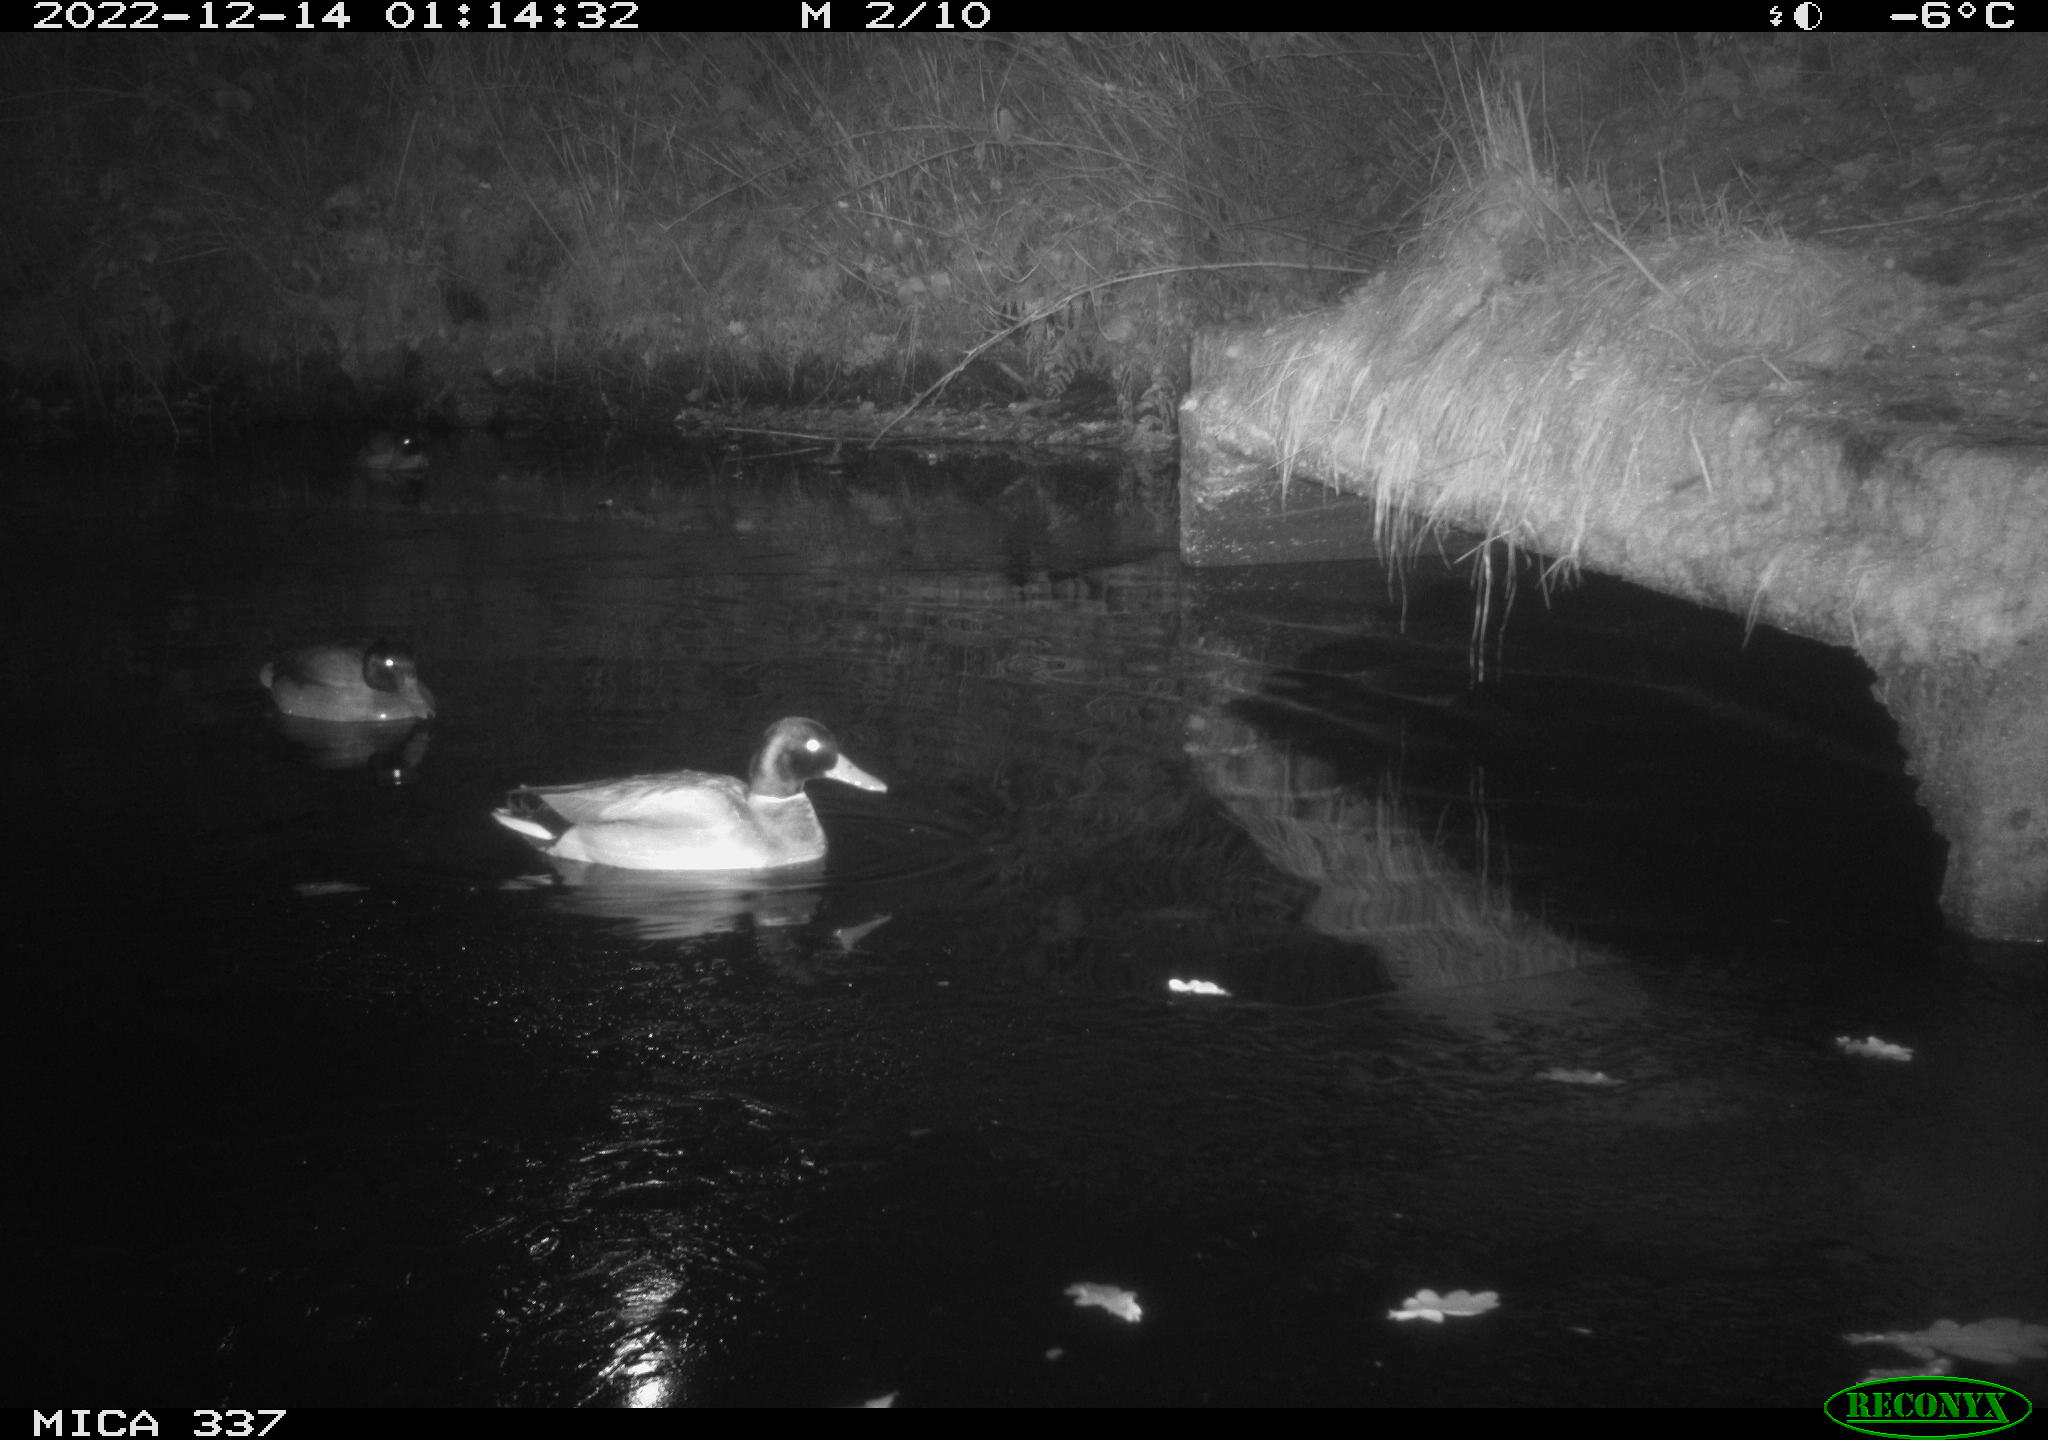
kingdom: Animalia
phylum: Chordata
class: Aves
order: Anseriformes
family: Anatidae
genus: Anas
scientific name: Anas
